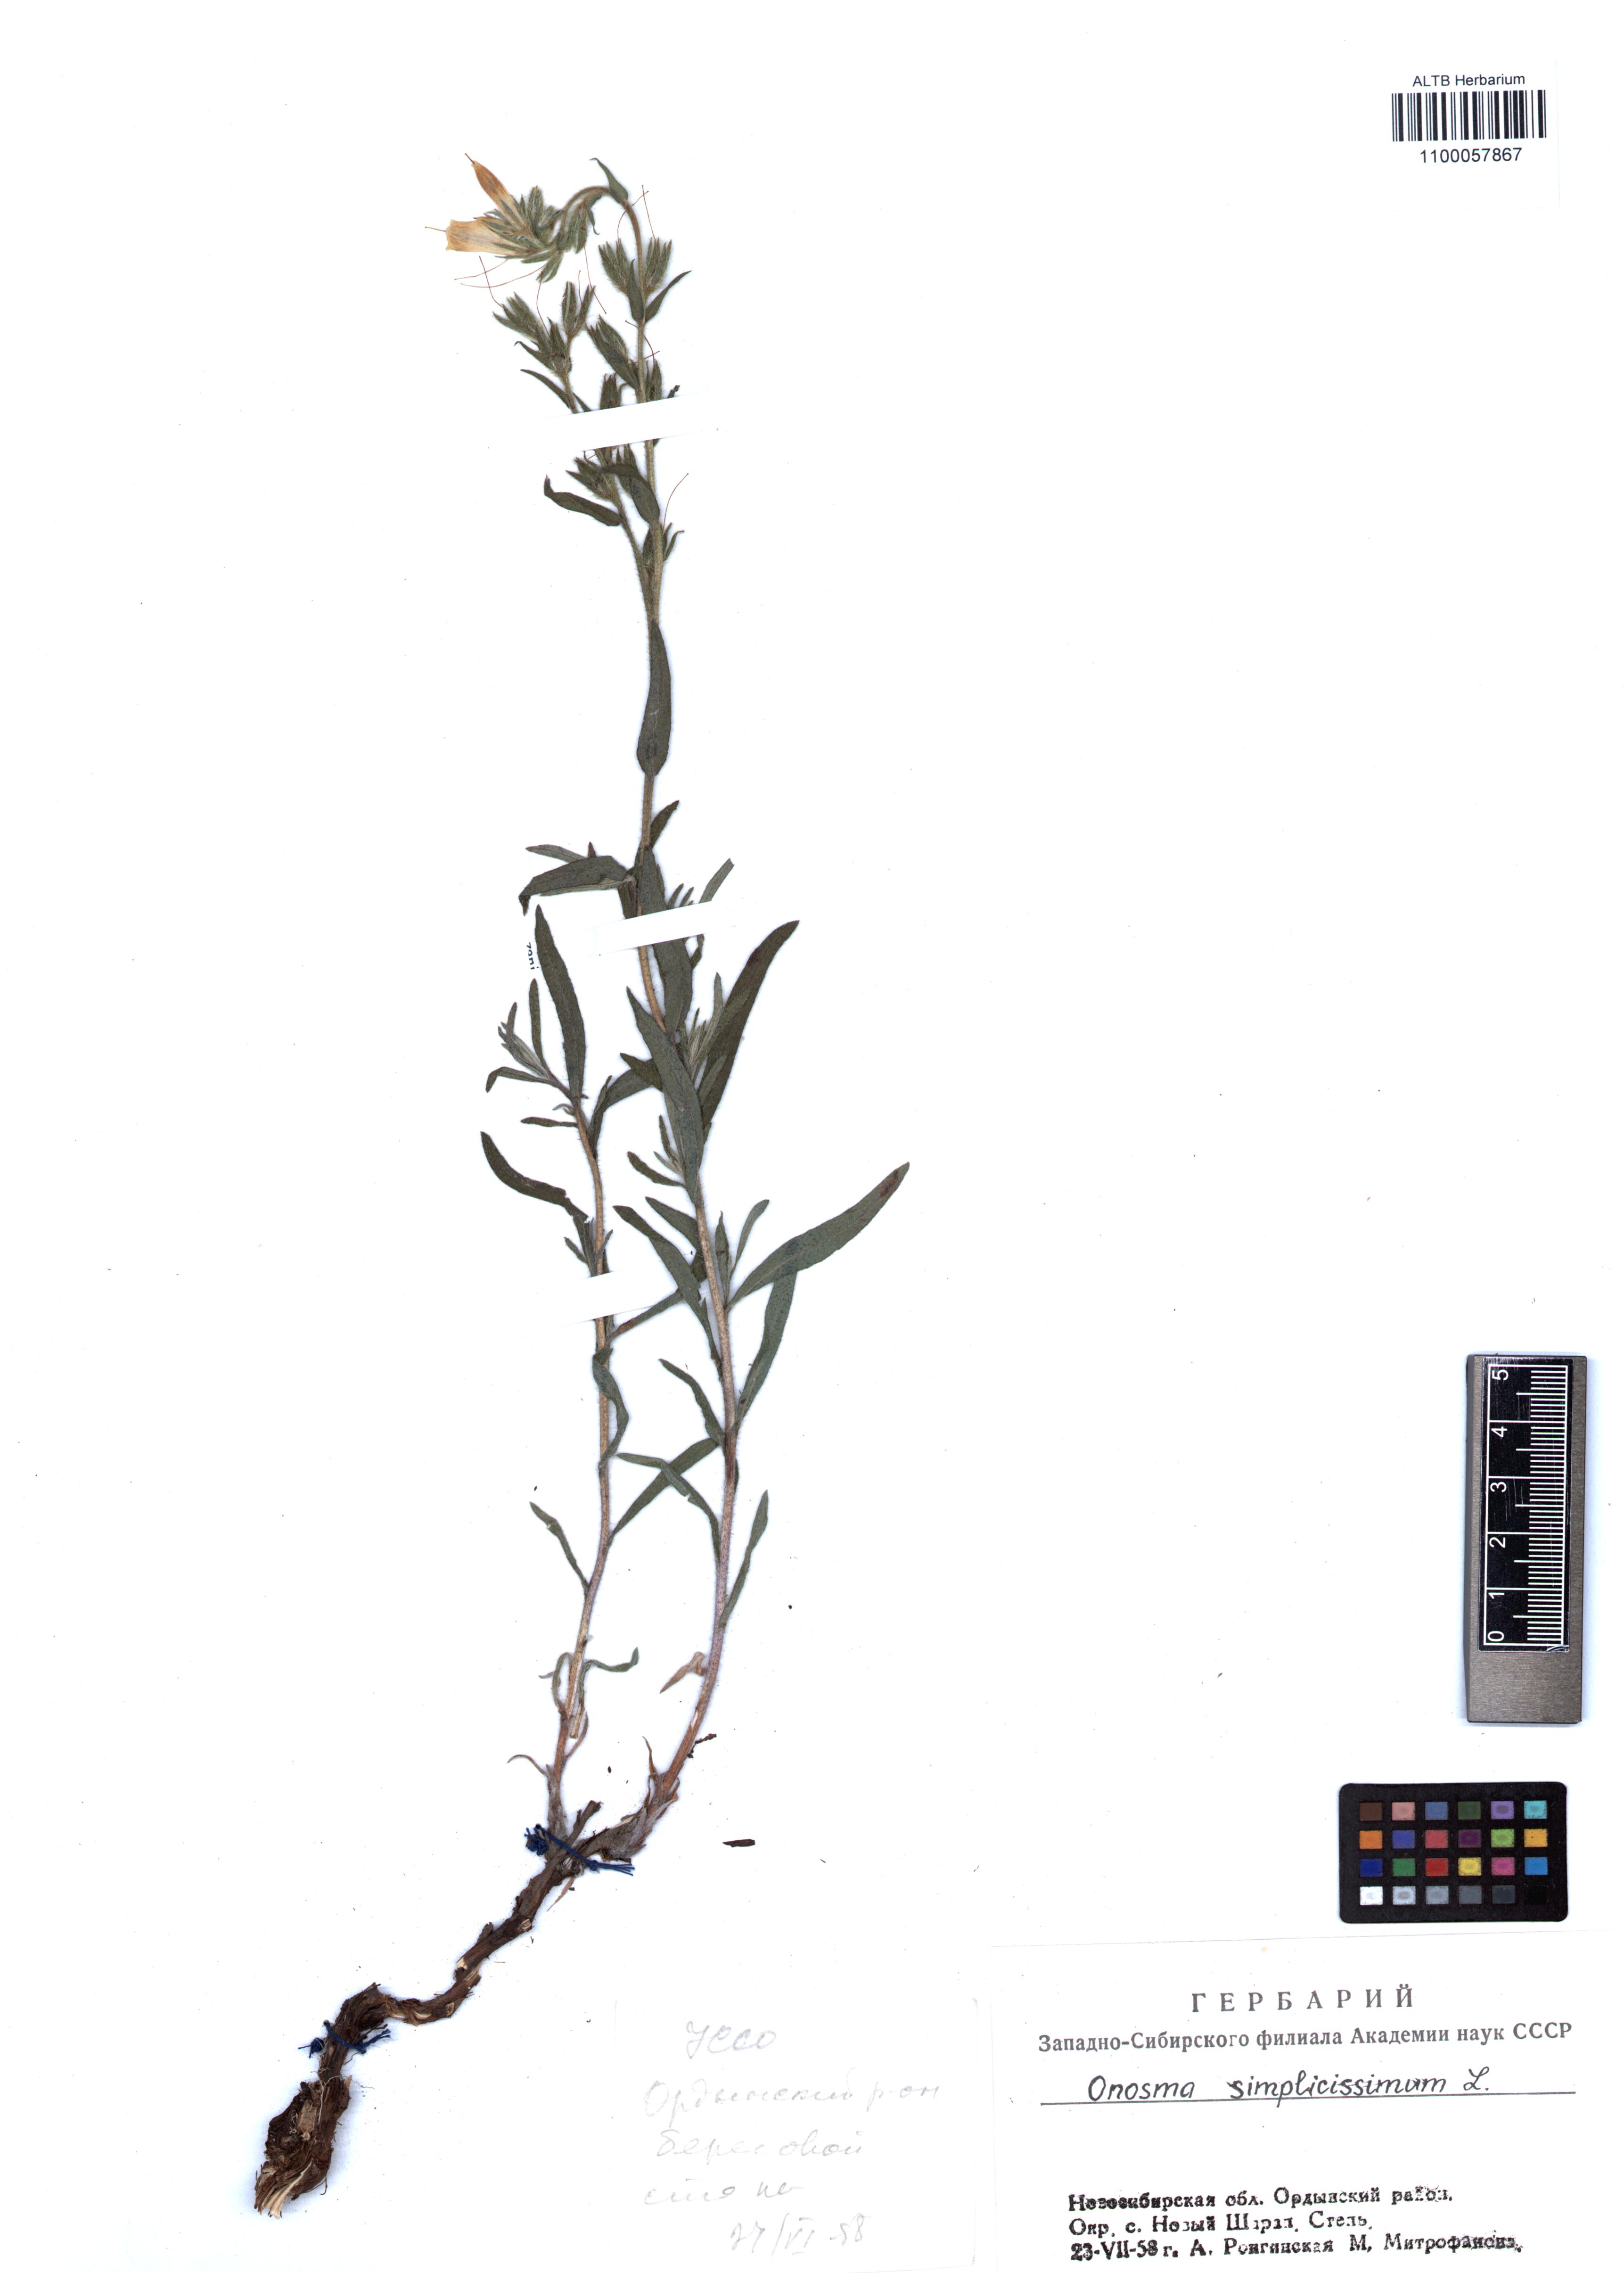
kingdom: Plantae
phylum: Tracheophyta
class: Magnoliopsida
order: Boraginales
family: Boraginaceae
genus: Onosma
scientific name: Onosma simplicissima
